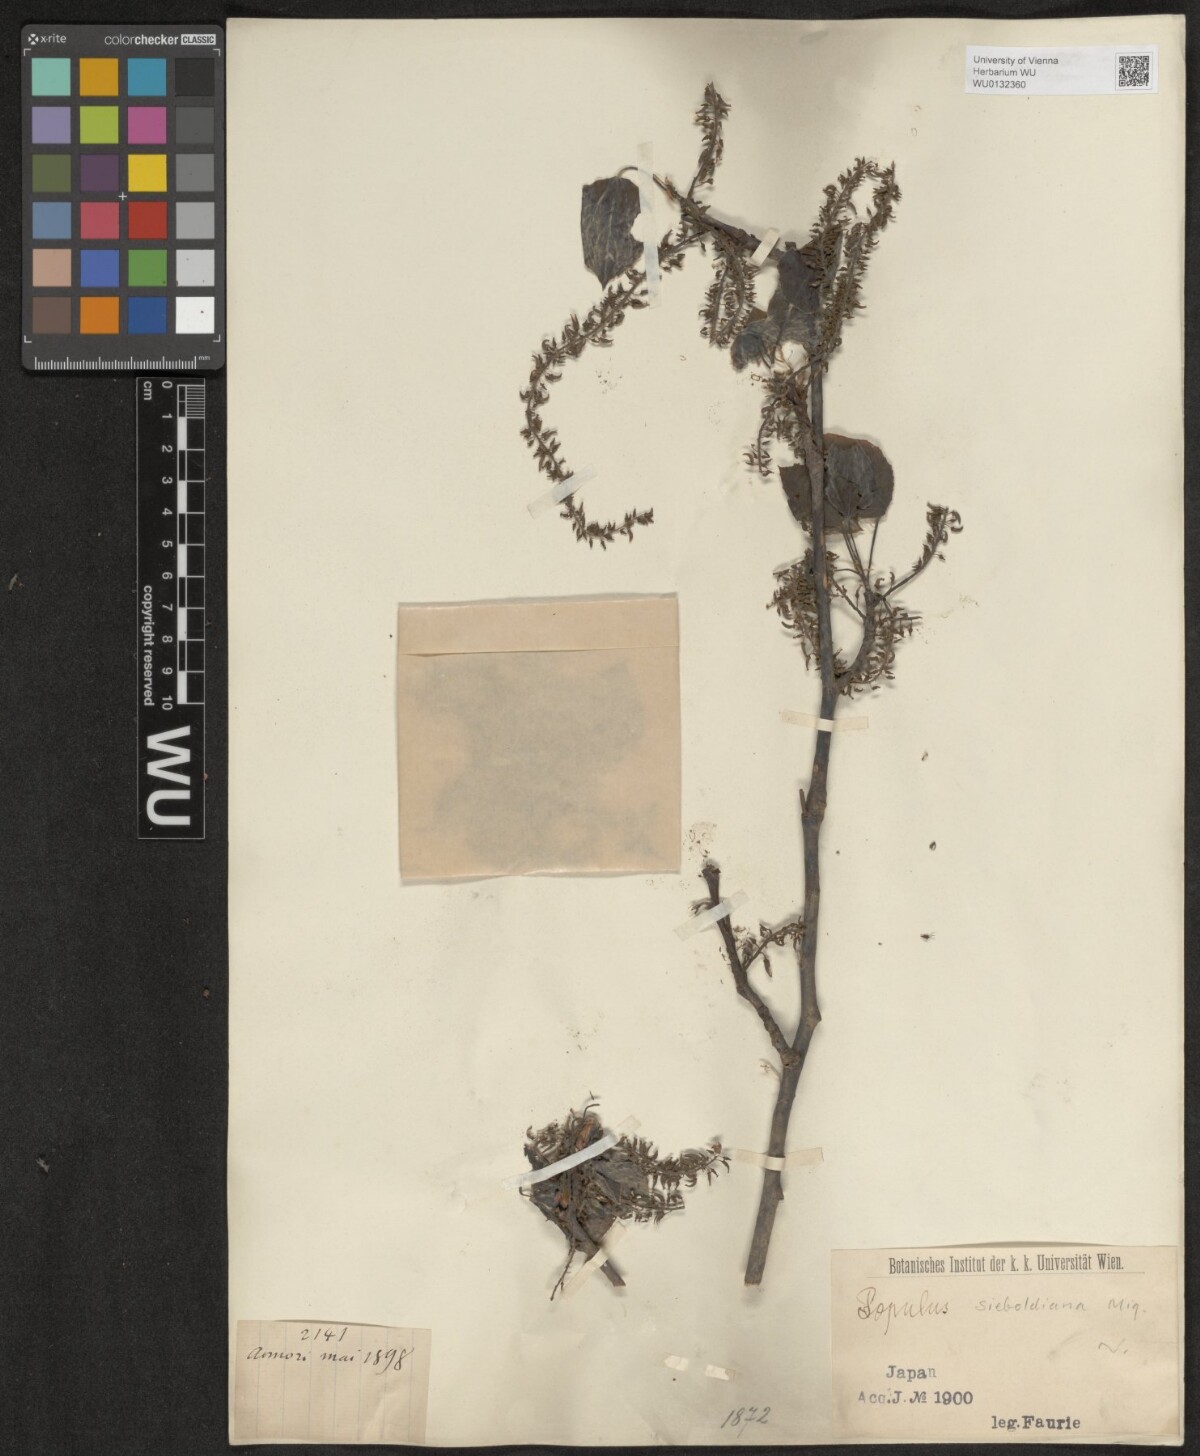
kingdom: Plantae
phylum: Tracheophyta
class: Magnoliopsida
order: Malpighiales
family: Salicaceae
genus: Populus
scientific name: Populus sieboldii
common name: Japanese aspen
